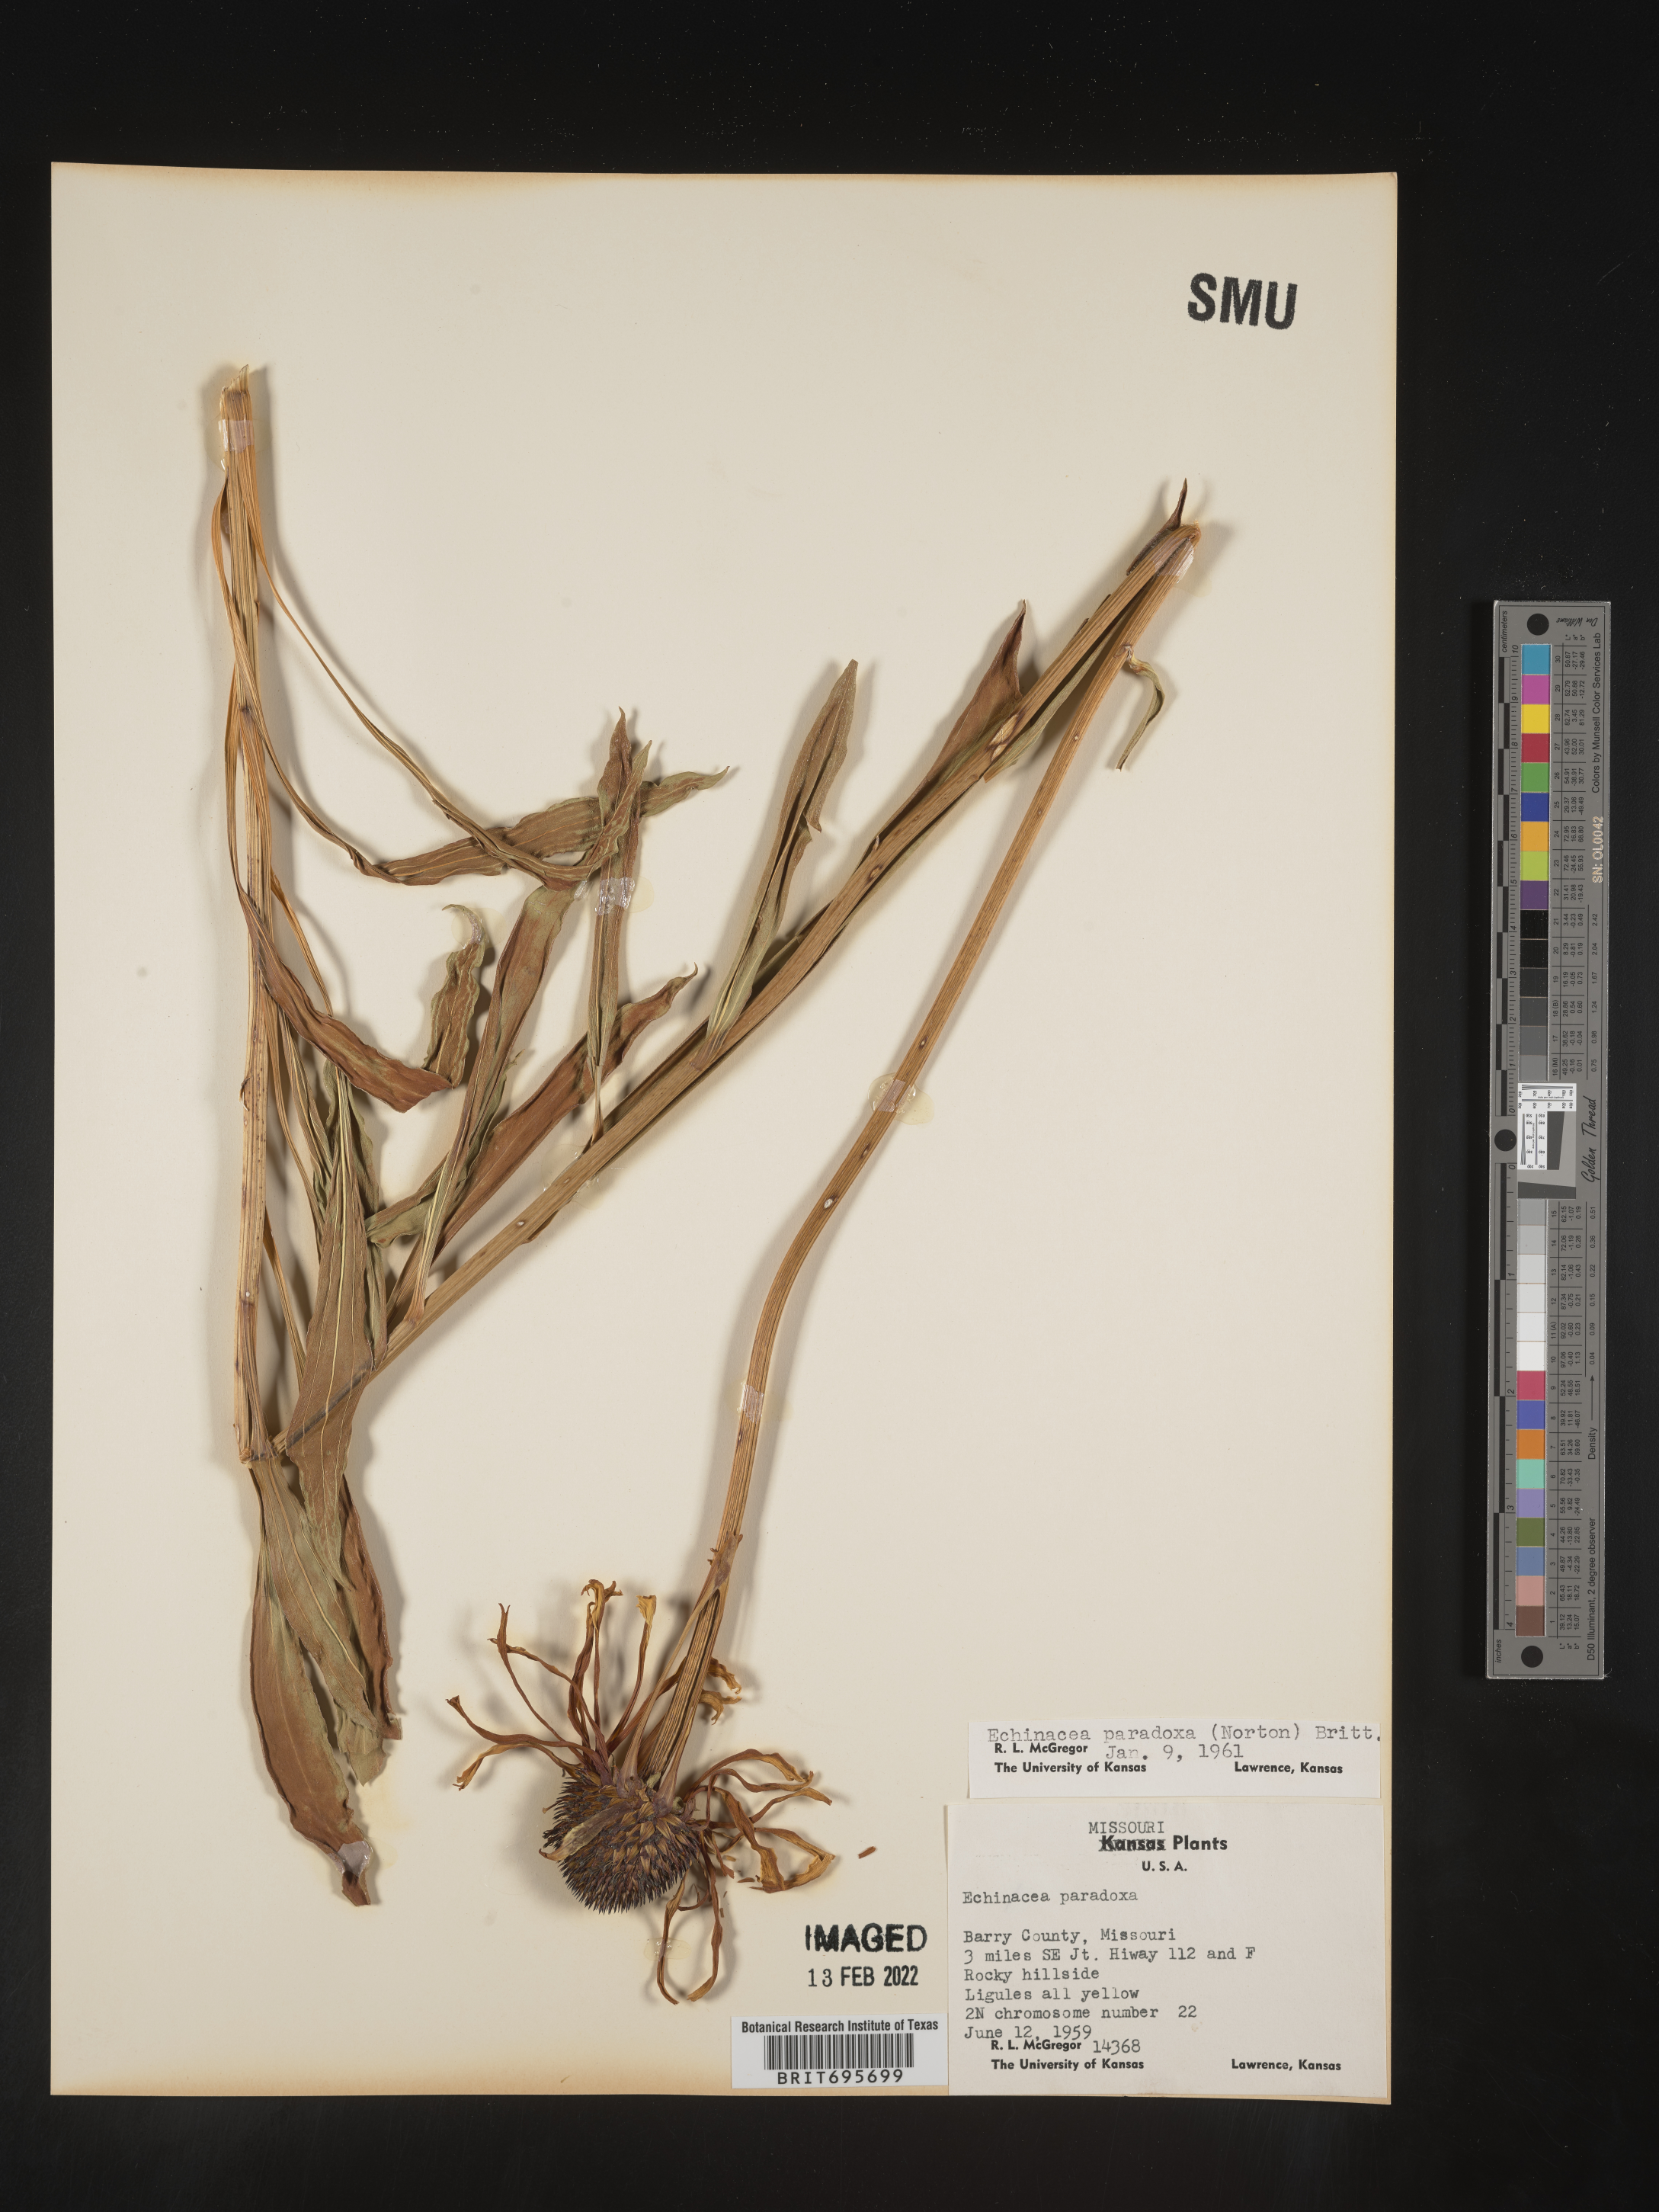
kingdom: Plantae
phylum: Tracheophyta
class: Magnoliopsida
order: Asterales
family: Asteraceae
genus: Echinacea
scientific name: Echinacea paradoxa
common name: Bush's purple-coneflower
